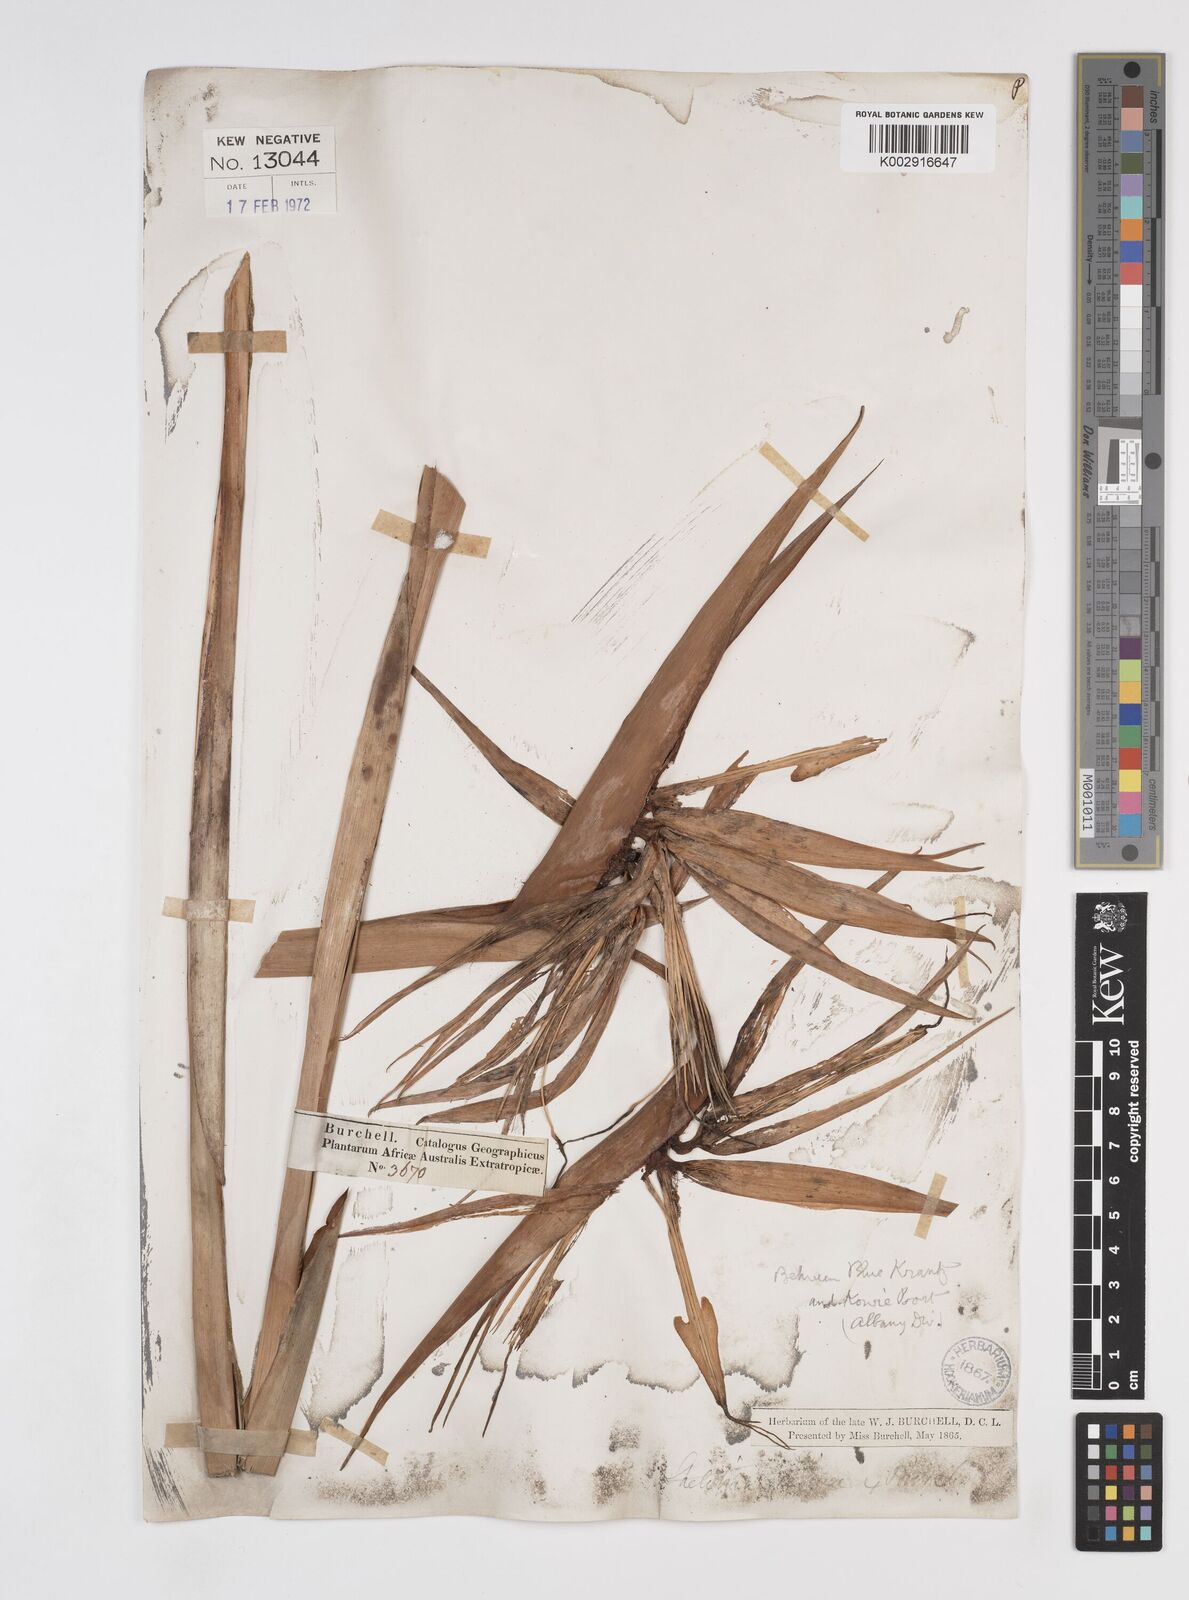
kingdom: Plantae
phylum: Tracheophyta
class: Liliopsida
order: Zingiberales
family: Strelitziaceae
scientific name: Strelitziaceae
